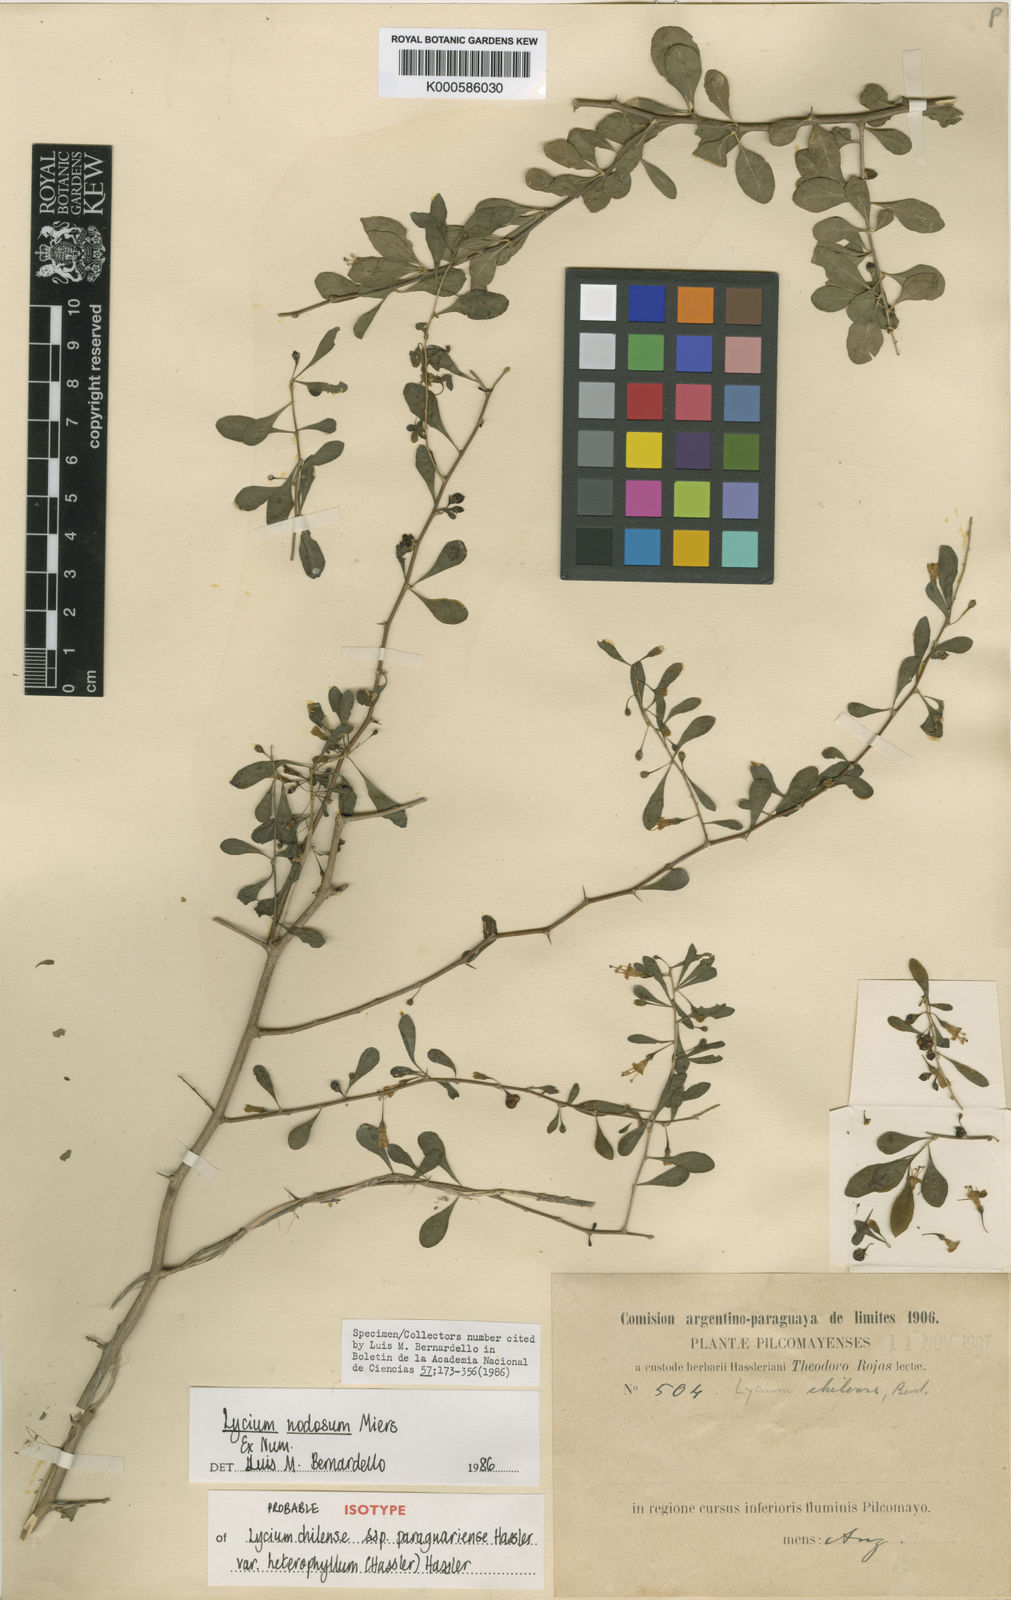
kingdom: Plantae
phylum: Tracheophyta
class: Magnoliopsida
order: Solanales
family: Solanaceae
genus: Lycium
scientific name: Lycium nodosum
